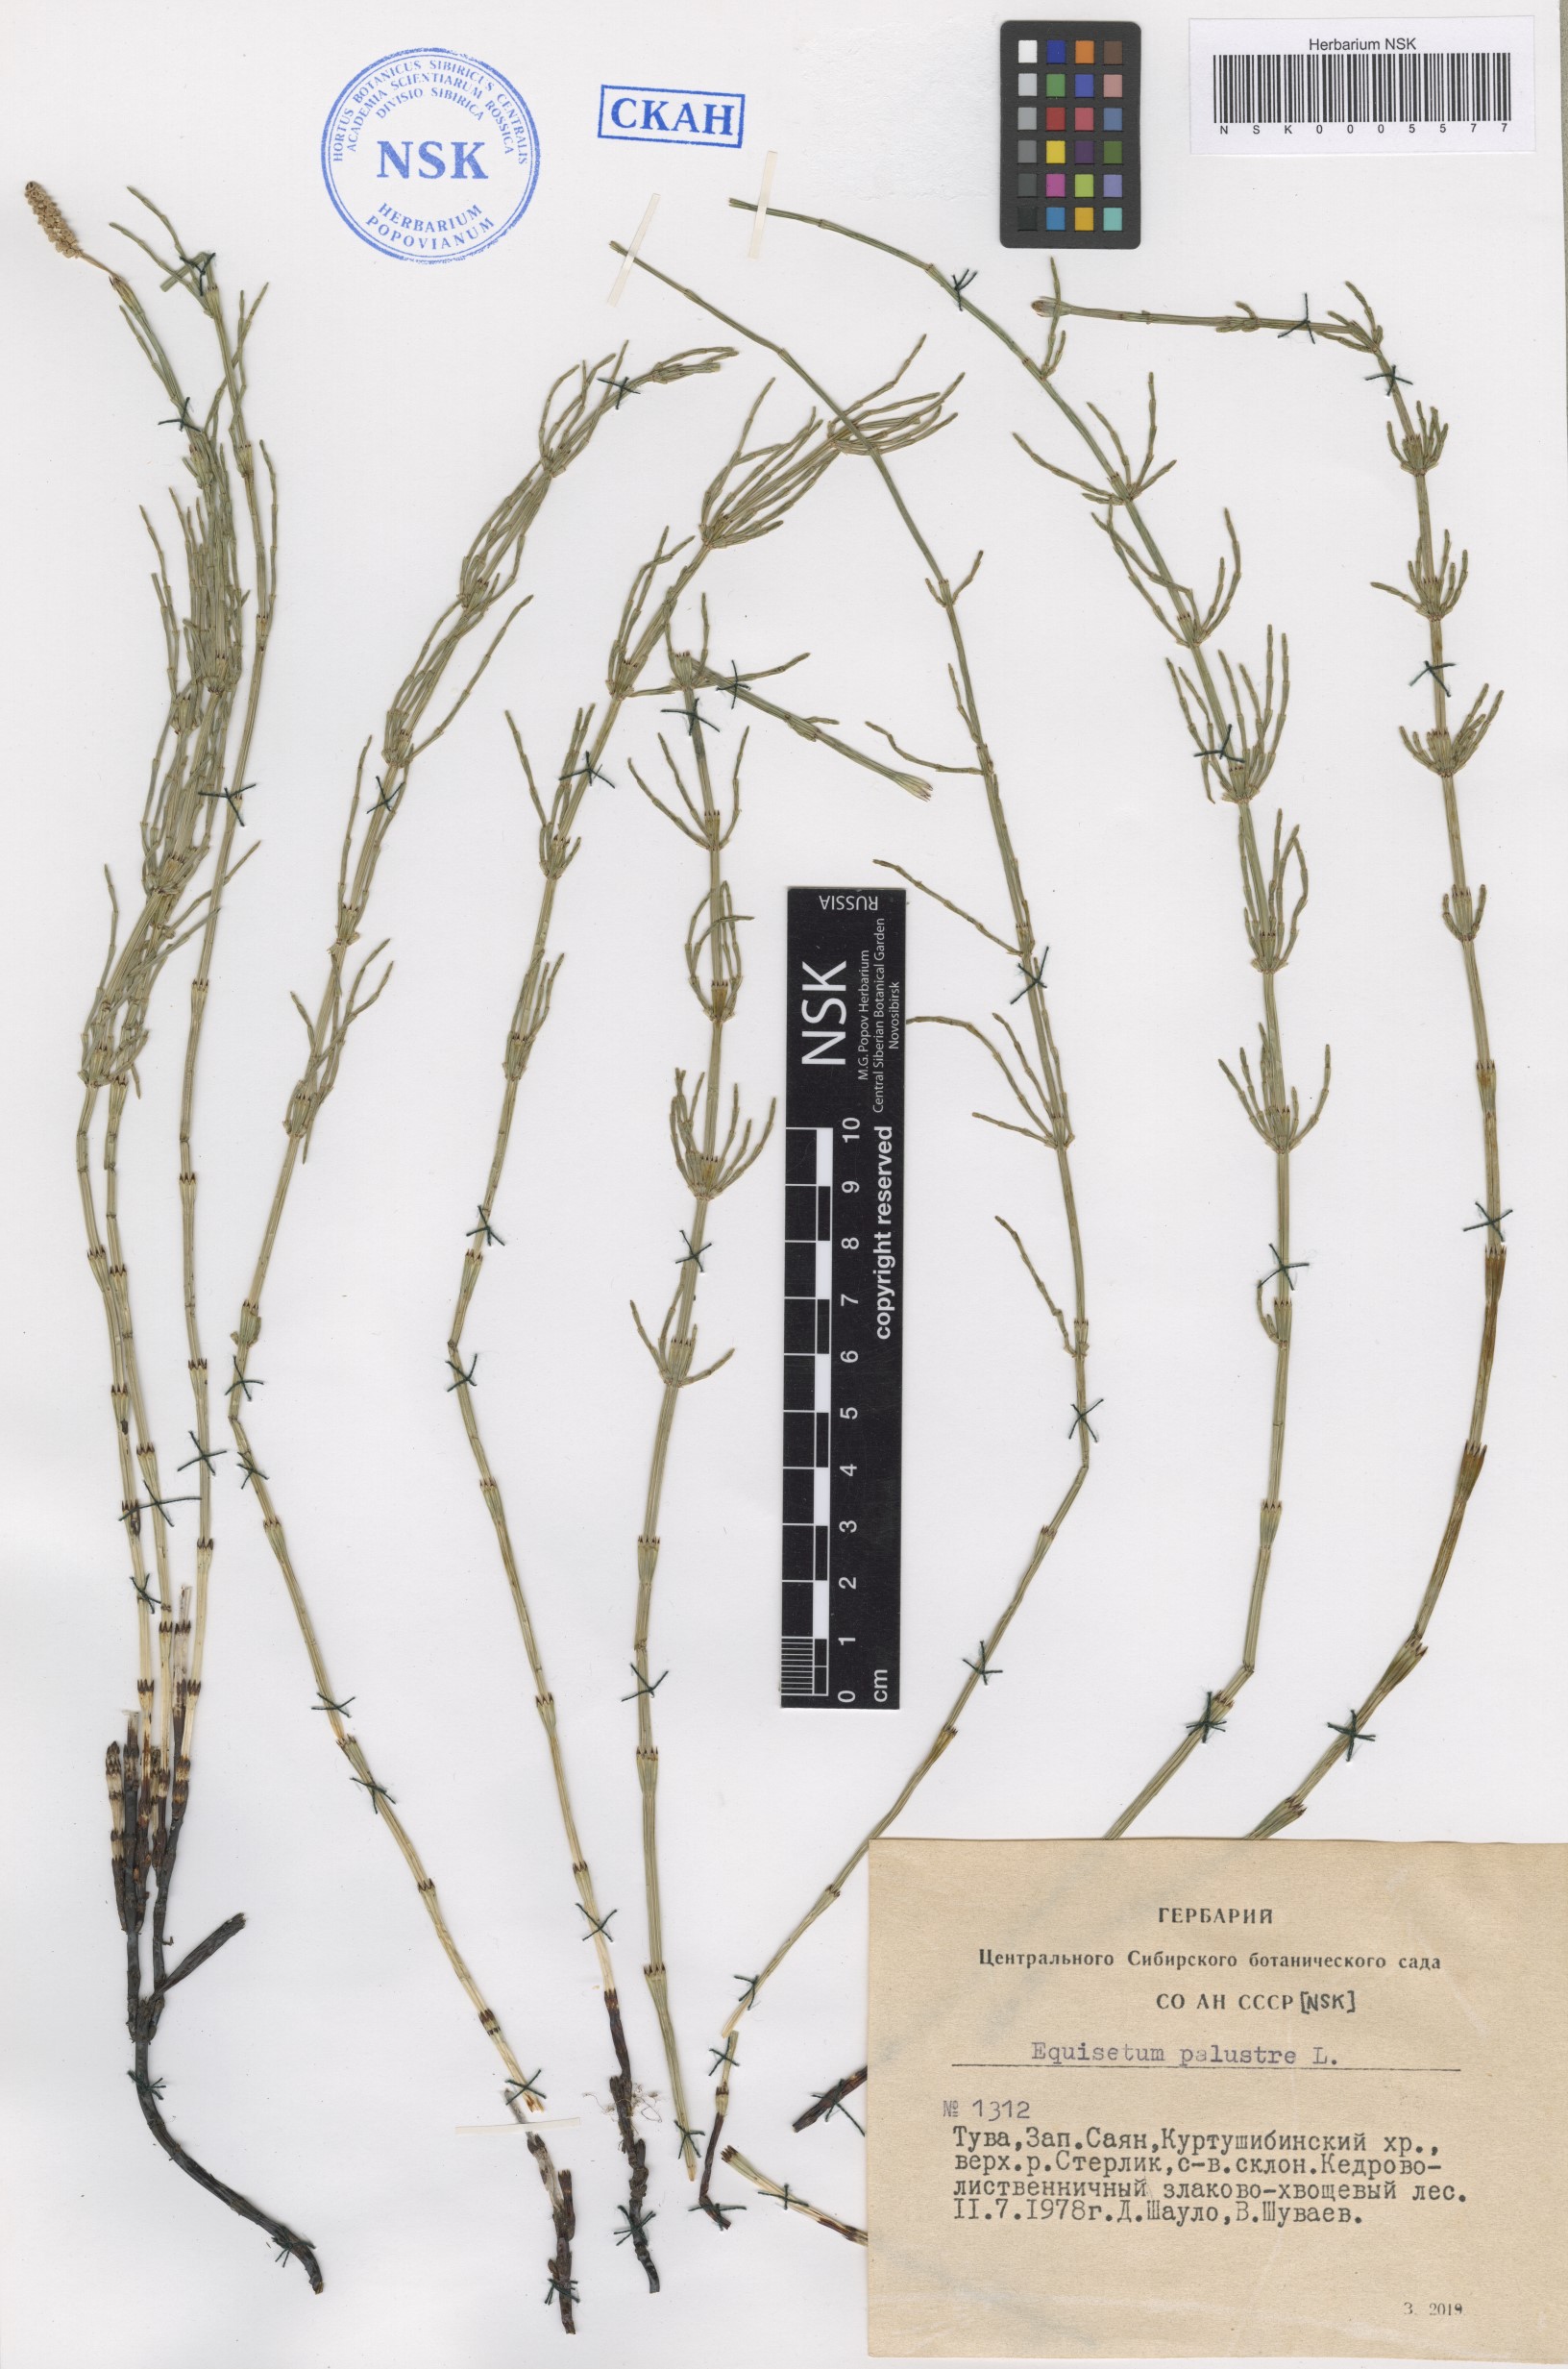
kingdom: Plantae
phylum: Tracheophyta
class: Polypodiopsida
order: Equisetales
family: Equisetaceae
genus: Equisetum
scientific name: Equisetum palustre
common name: Marsh horsetail
